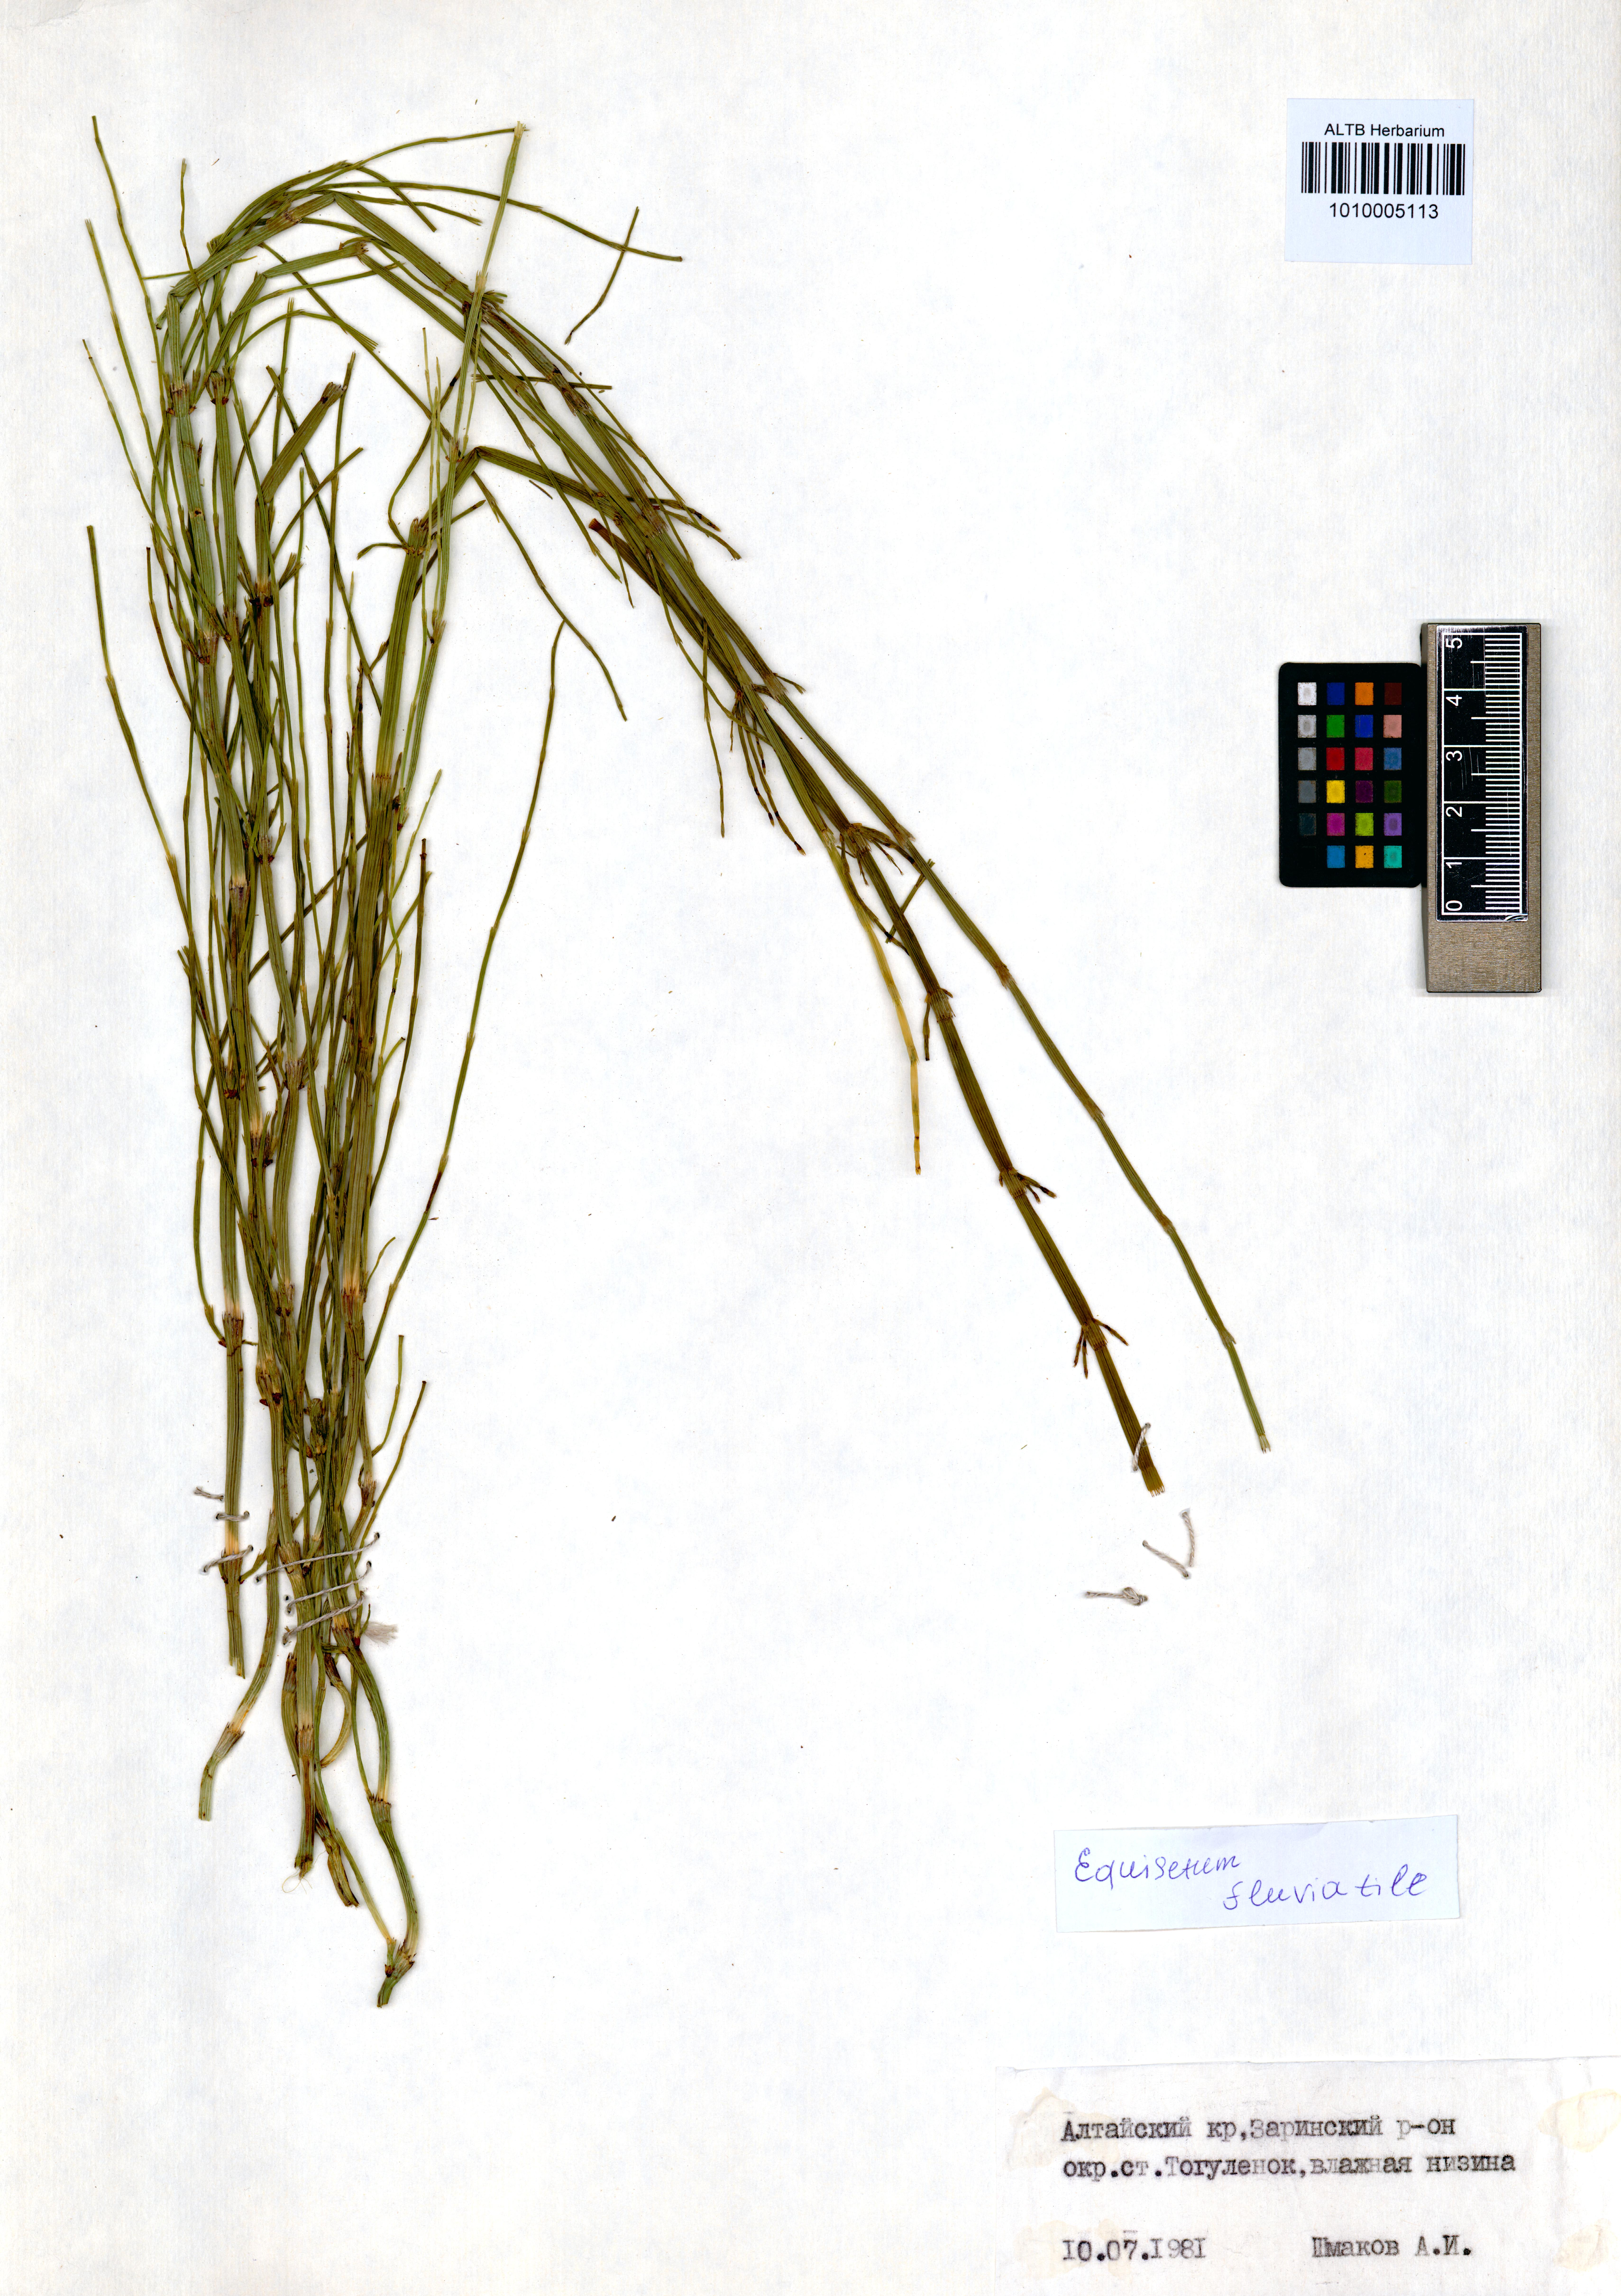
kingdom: Plantae
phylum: Tracheophyta
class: Polypodiopsida
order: Equisetales
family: Equisetaceae
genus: Equisetum
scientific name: Equisetum fluviatile
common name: Water horsetail
